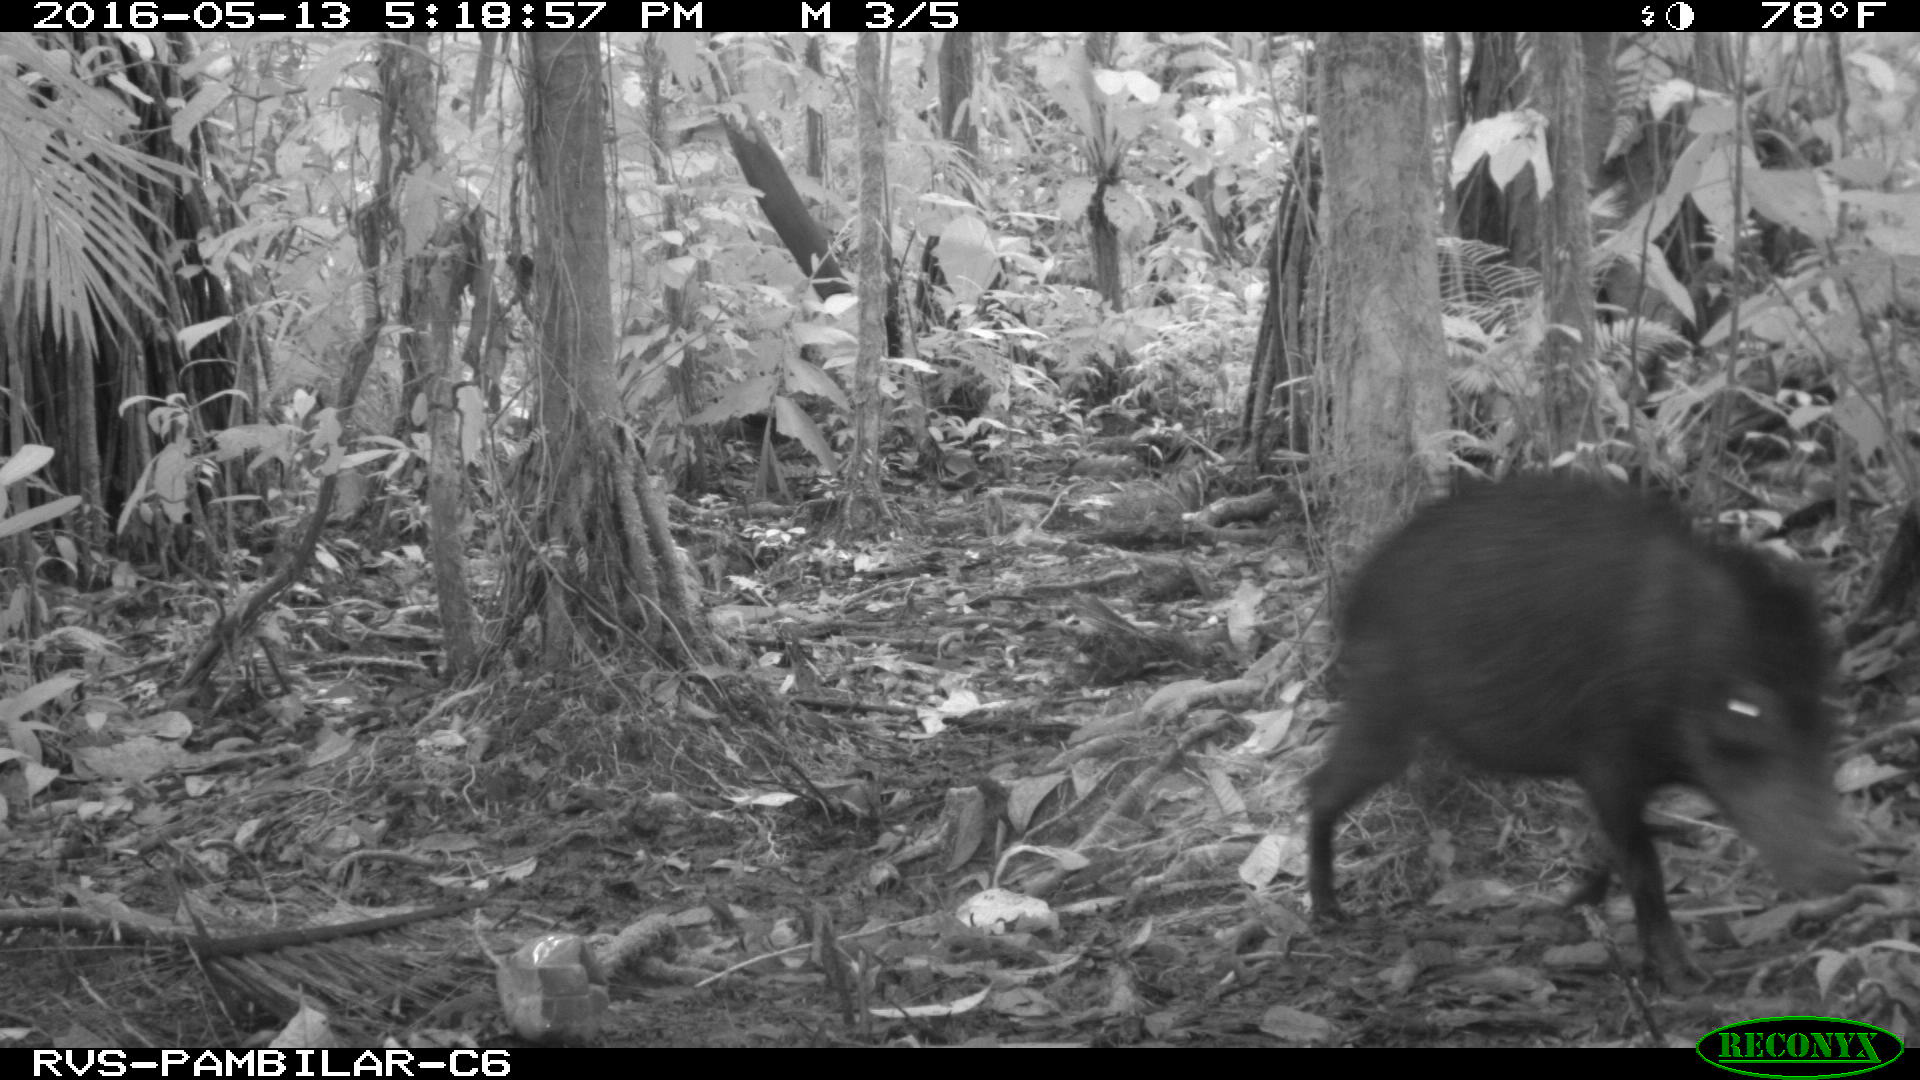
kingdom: Animalia
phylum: Chordata
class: Mammalia
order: Artiodactyla
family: Tayassuidae
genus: Tayassu
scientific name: Tayassu pecari
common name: White-lipped peccary
